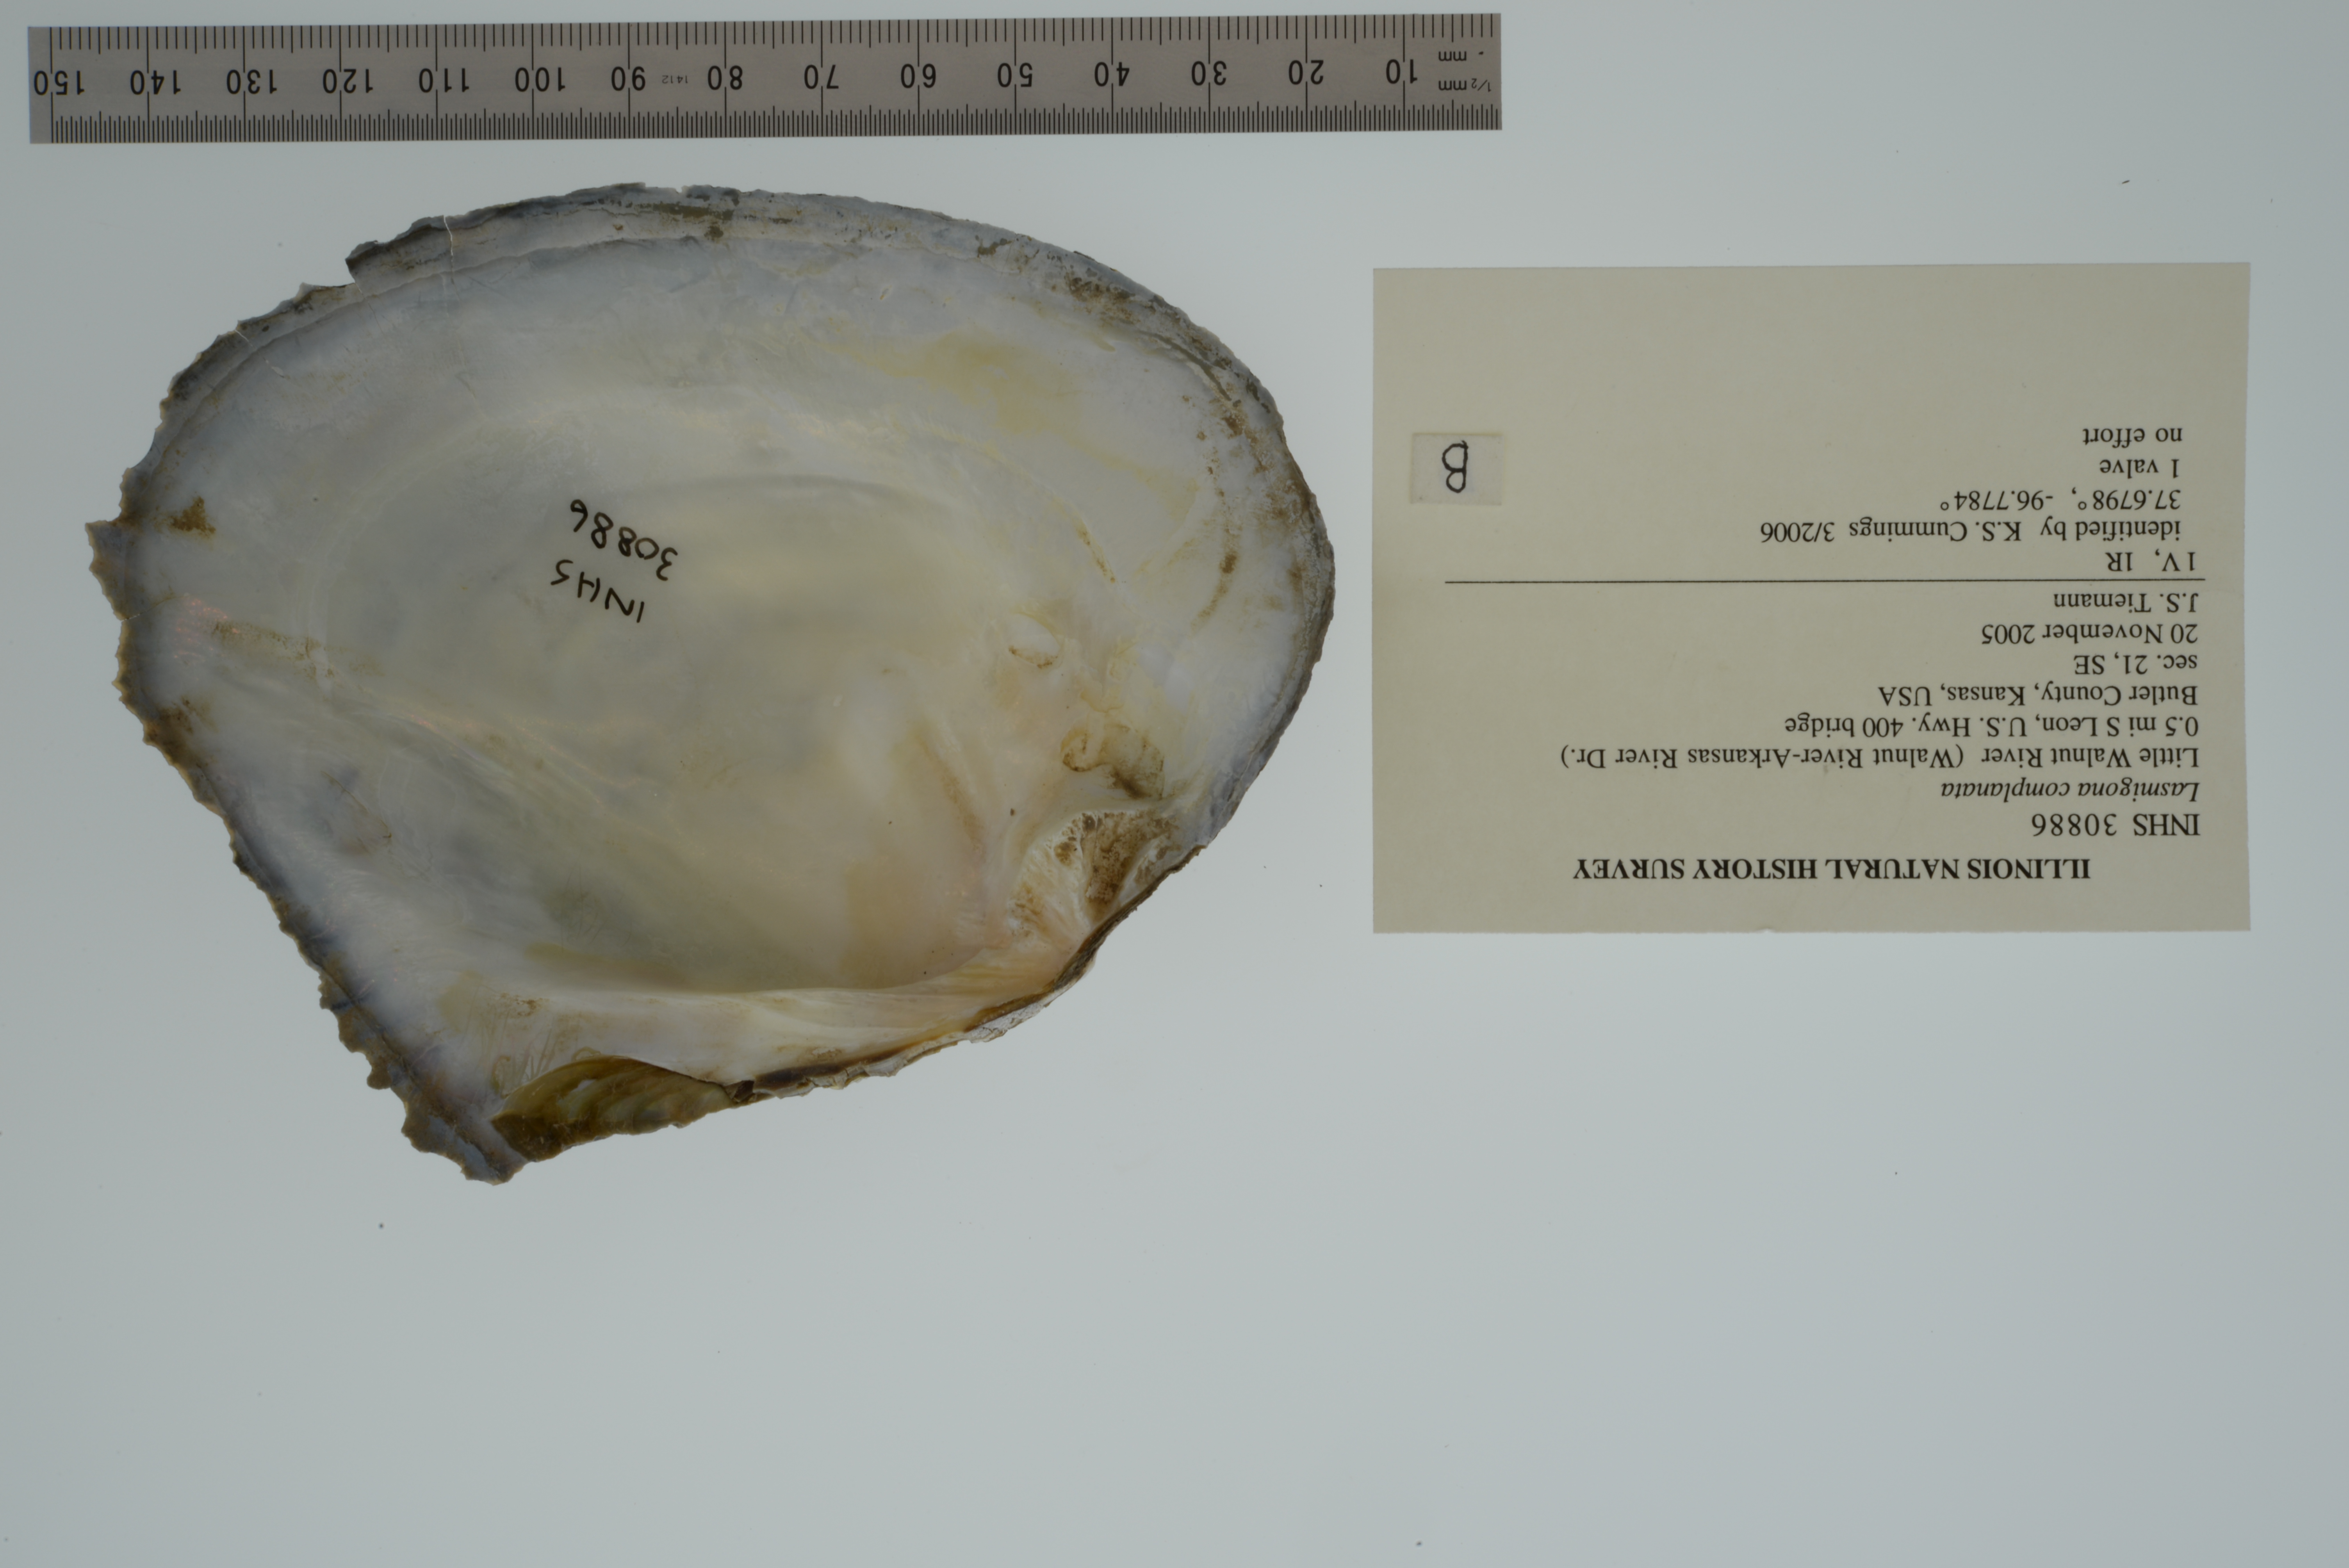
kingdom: Animalia
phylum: Mollusca
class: Bivalvia
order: Unionida
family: Unionidae
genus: Lasmigona
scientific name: Lasmigona complanata
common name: White heelsplitter
